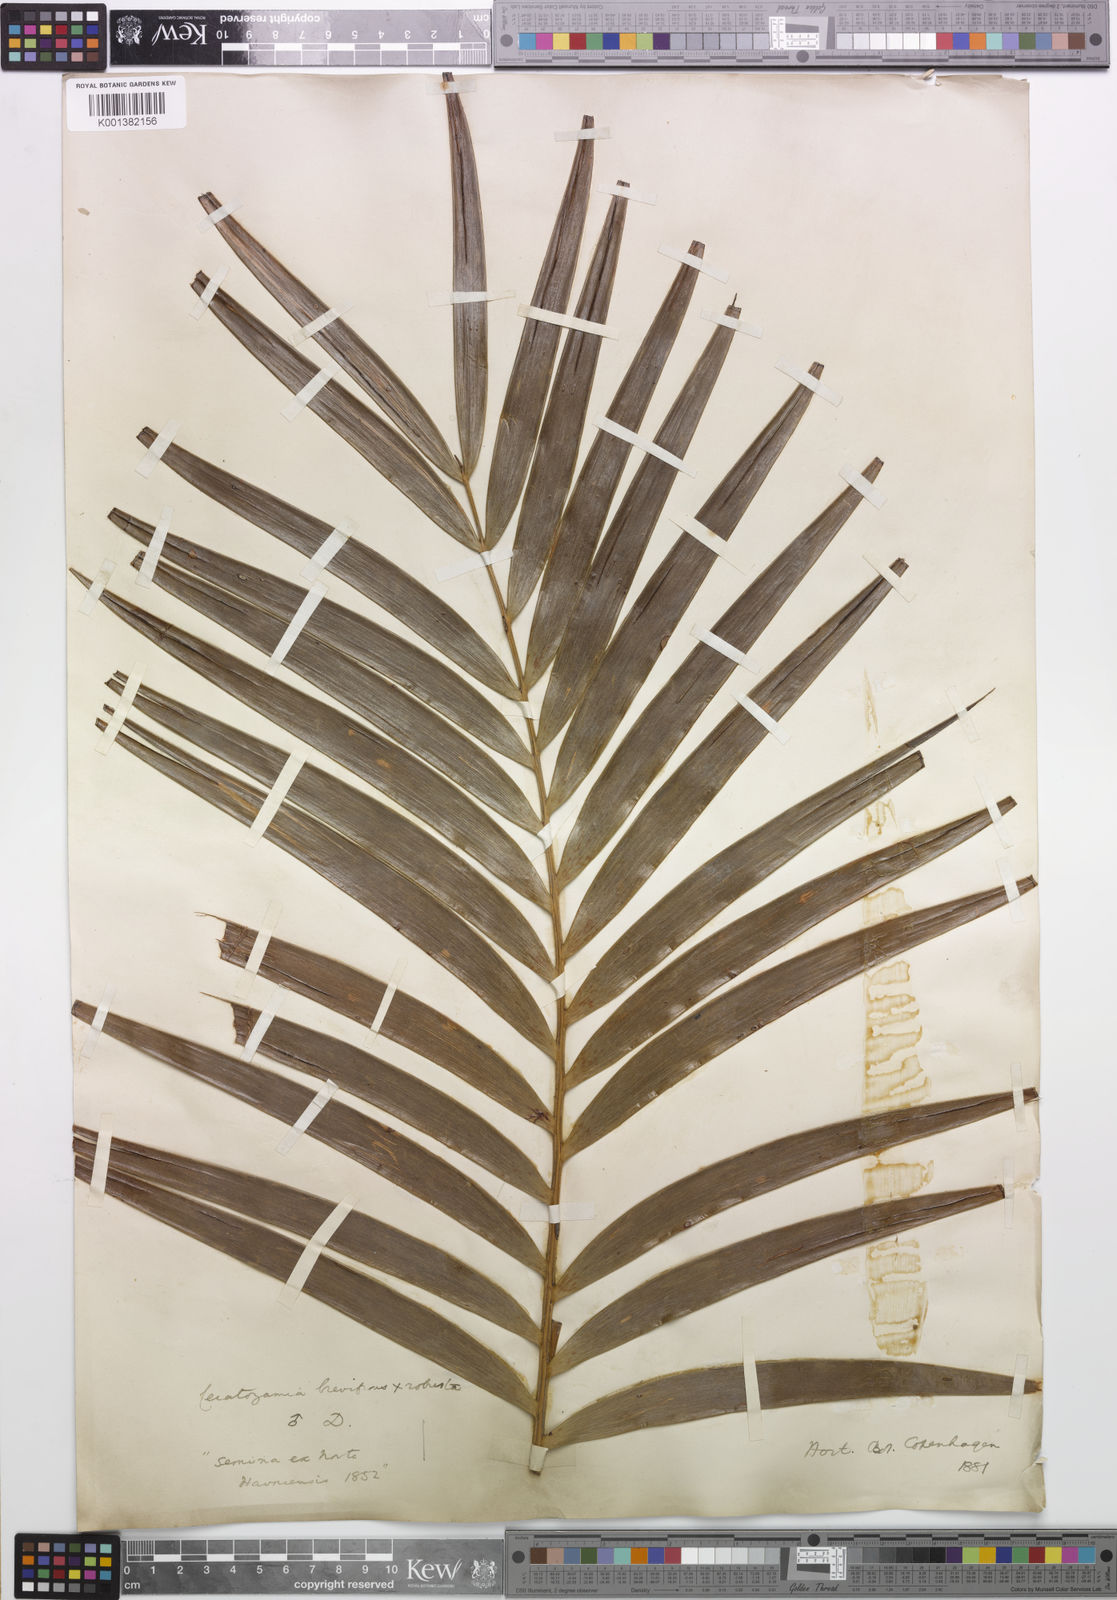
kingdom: Plantae
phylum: Tracheophyta
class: Cycadopsida
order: Cycadales
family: Zamiaceae
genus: Ceratozamia
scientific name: Ceratozamia brevifrons
